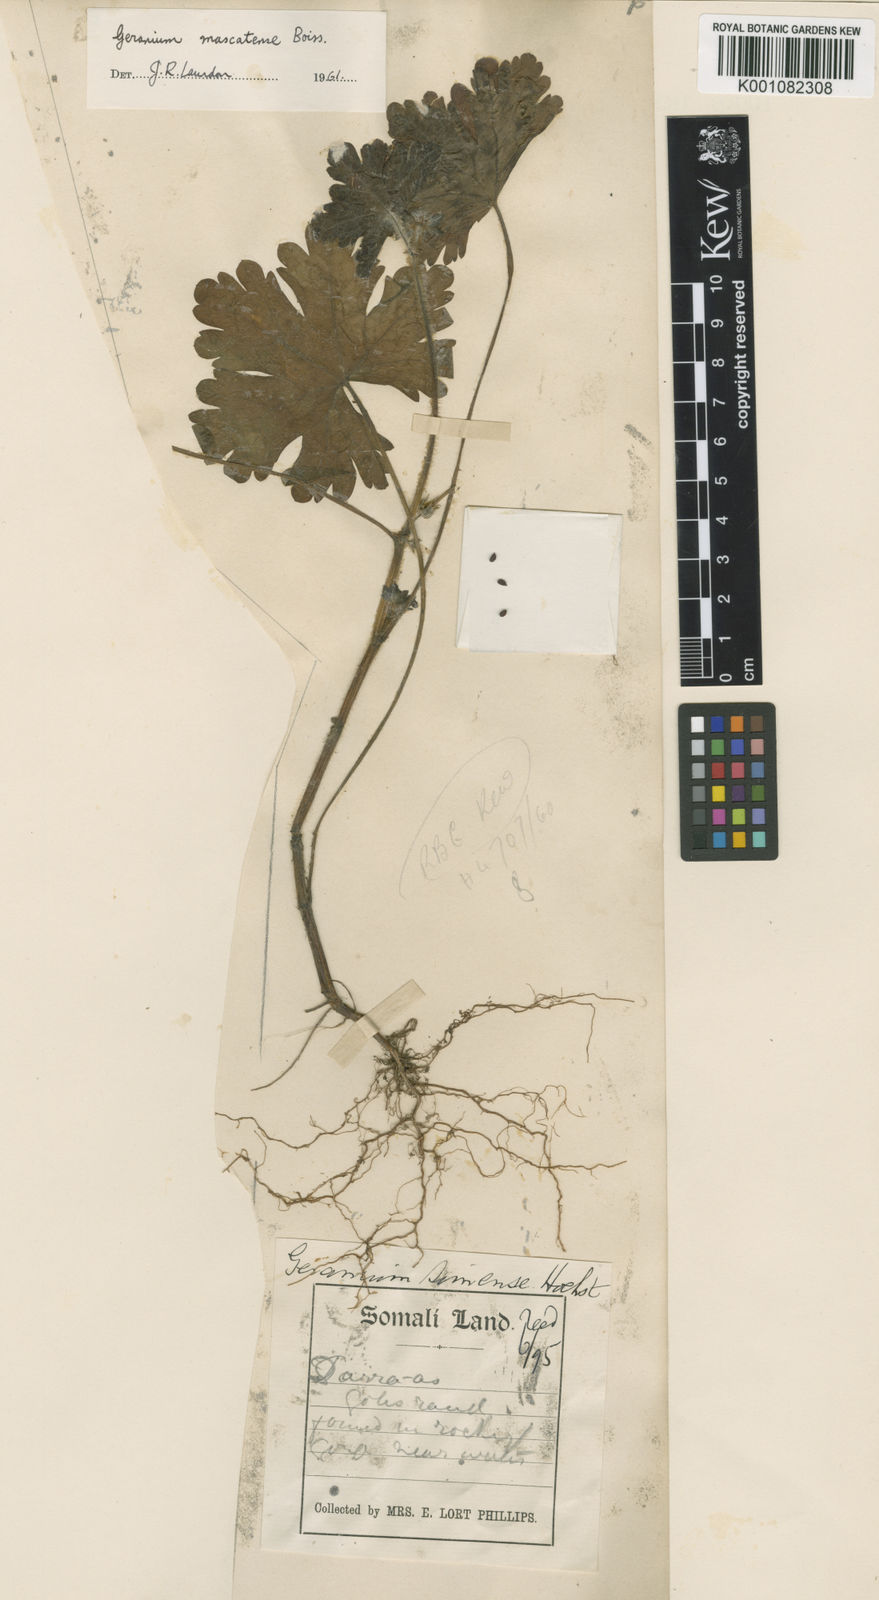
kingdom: Plantae
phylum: Tracheophyta
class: Magnoliopsida
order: Geraniales
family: Geraniaceae
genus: Geranium
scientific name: Geranium mascatense
